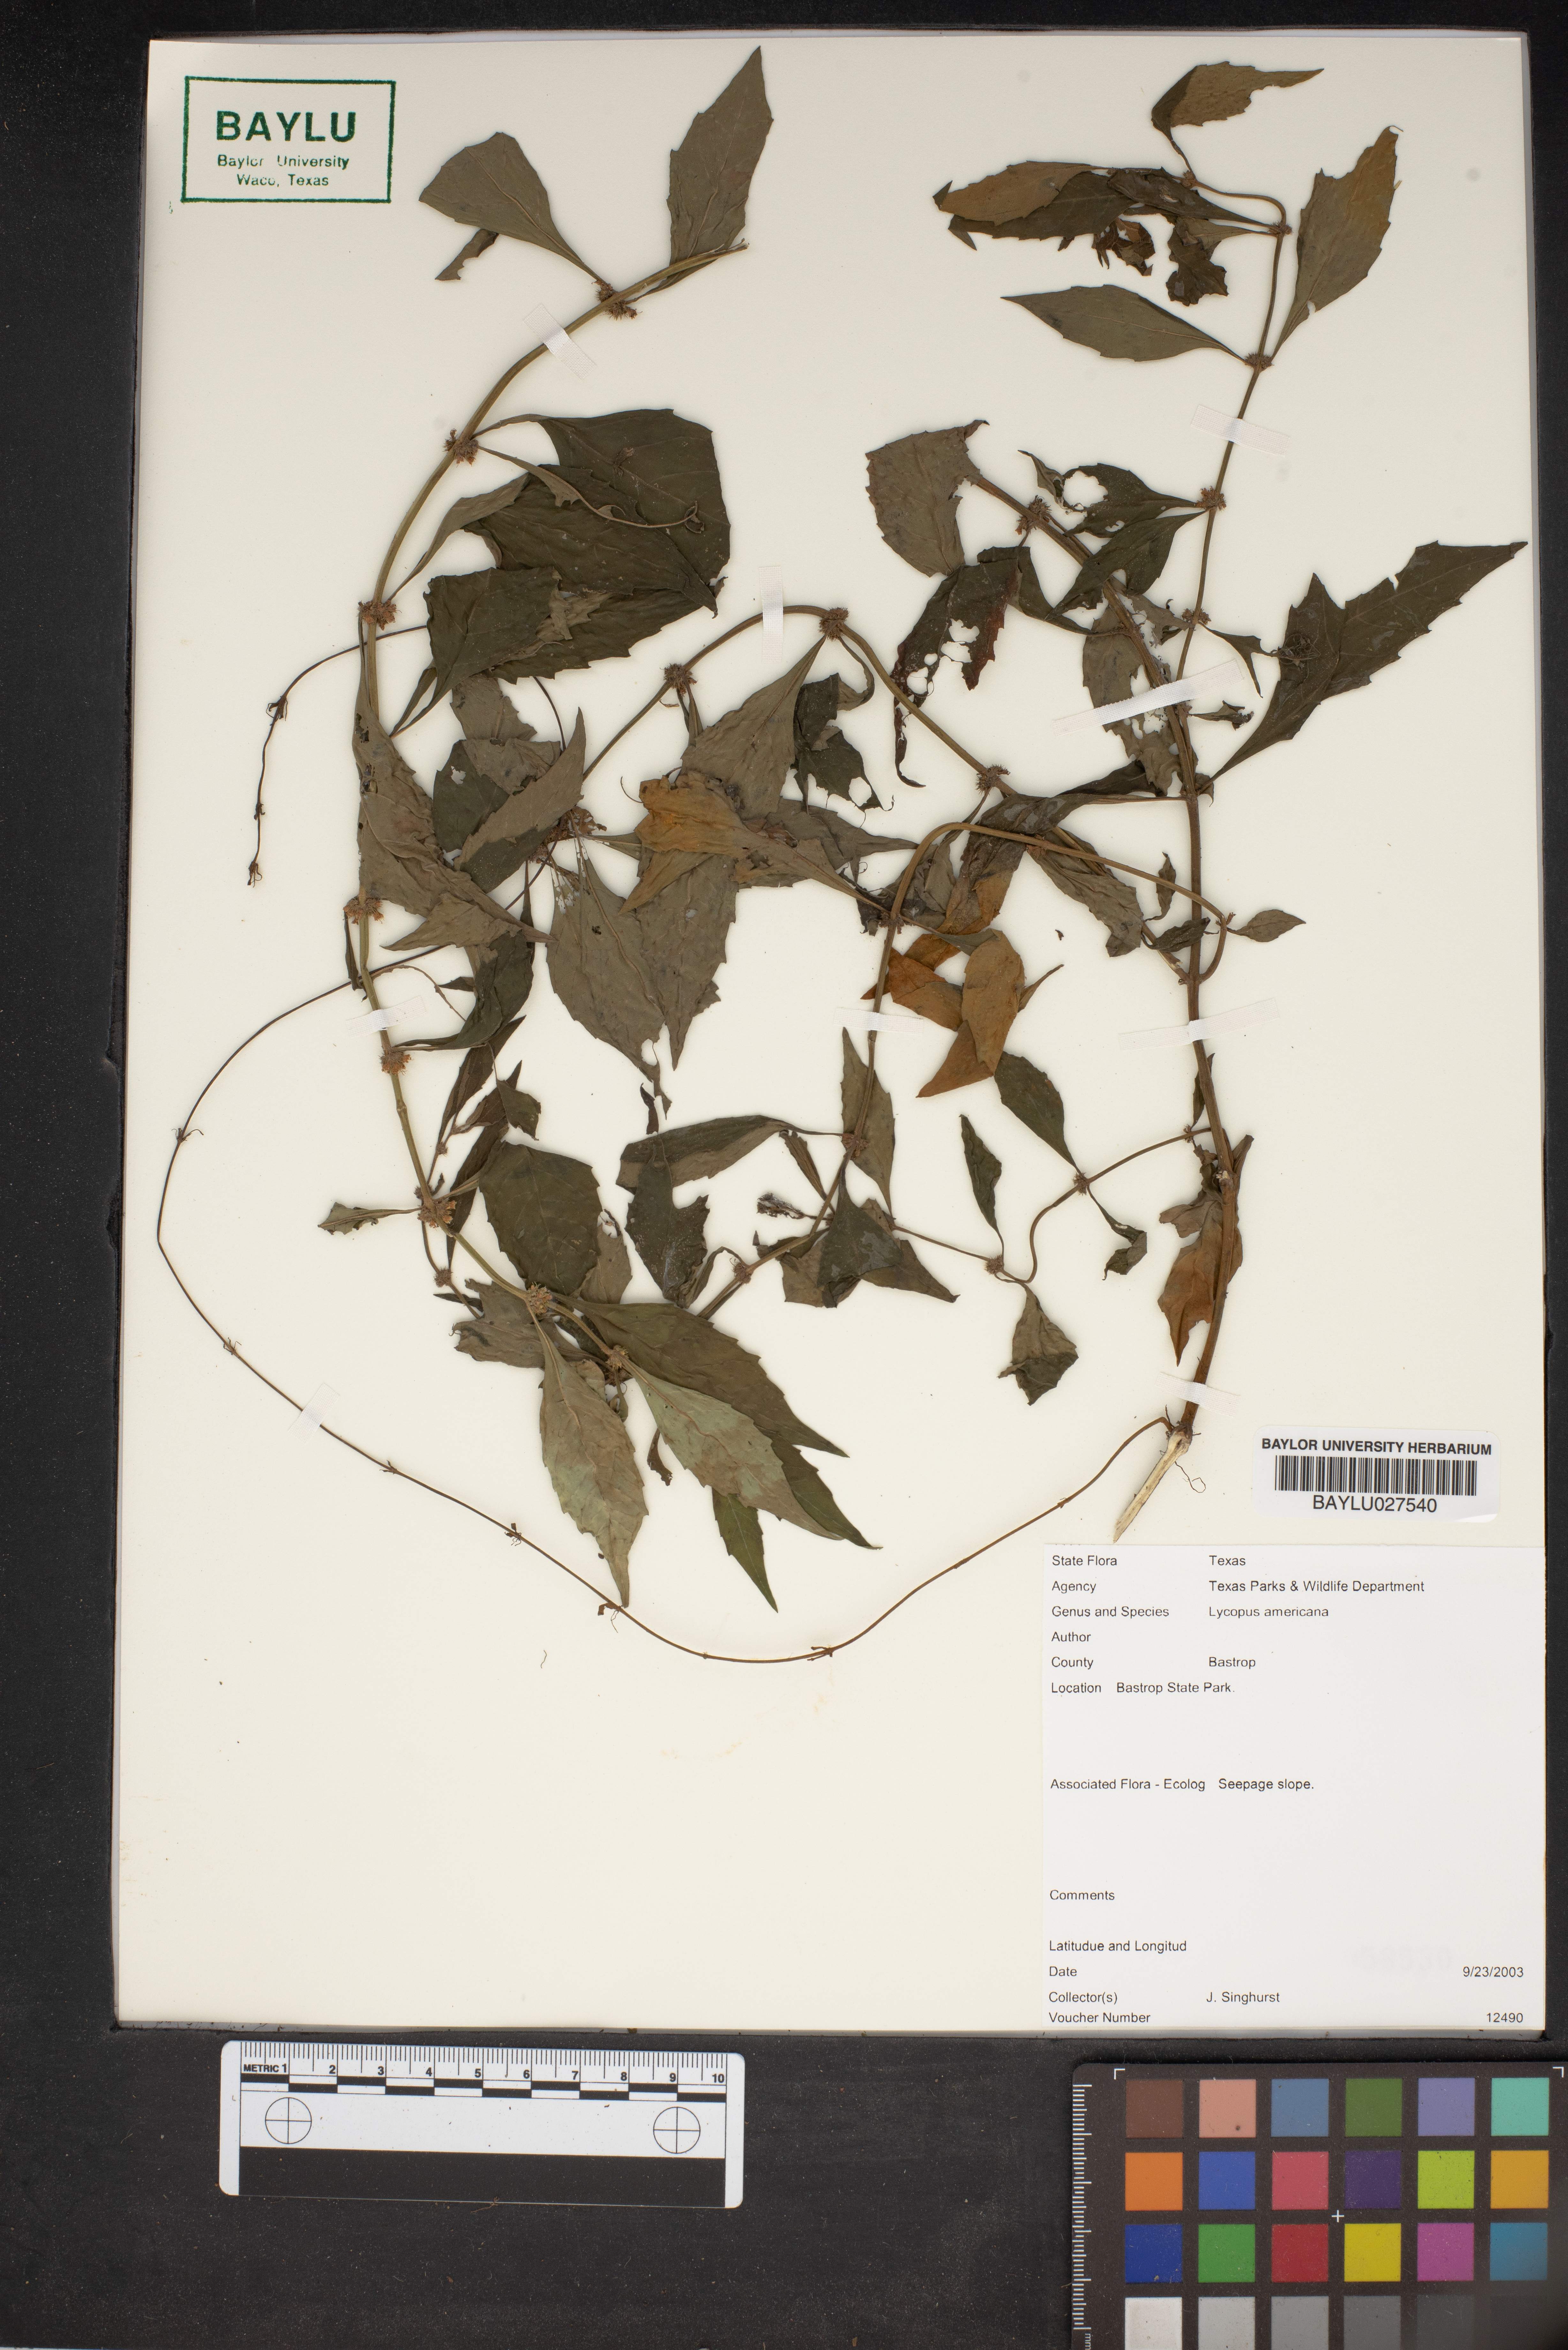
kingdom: Plantae
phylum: Tracheophyta
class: Magnoliopsida
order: Lamiales
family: Lamiaceae
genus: Lycopus
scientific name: Lycopus americanus
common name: American bugleweed
